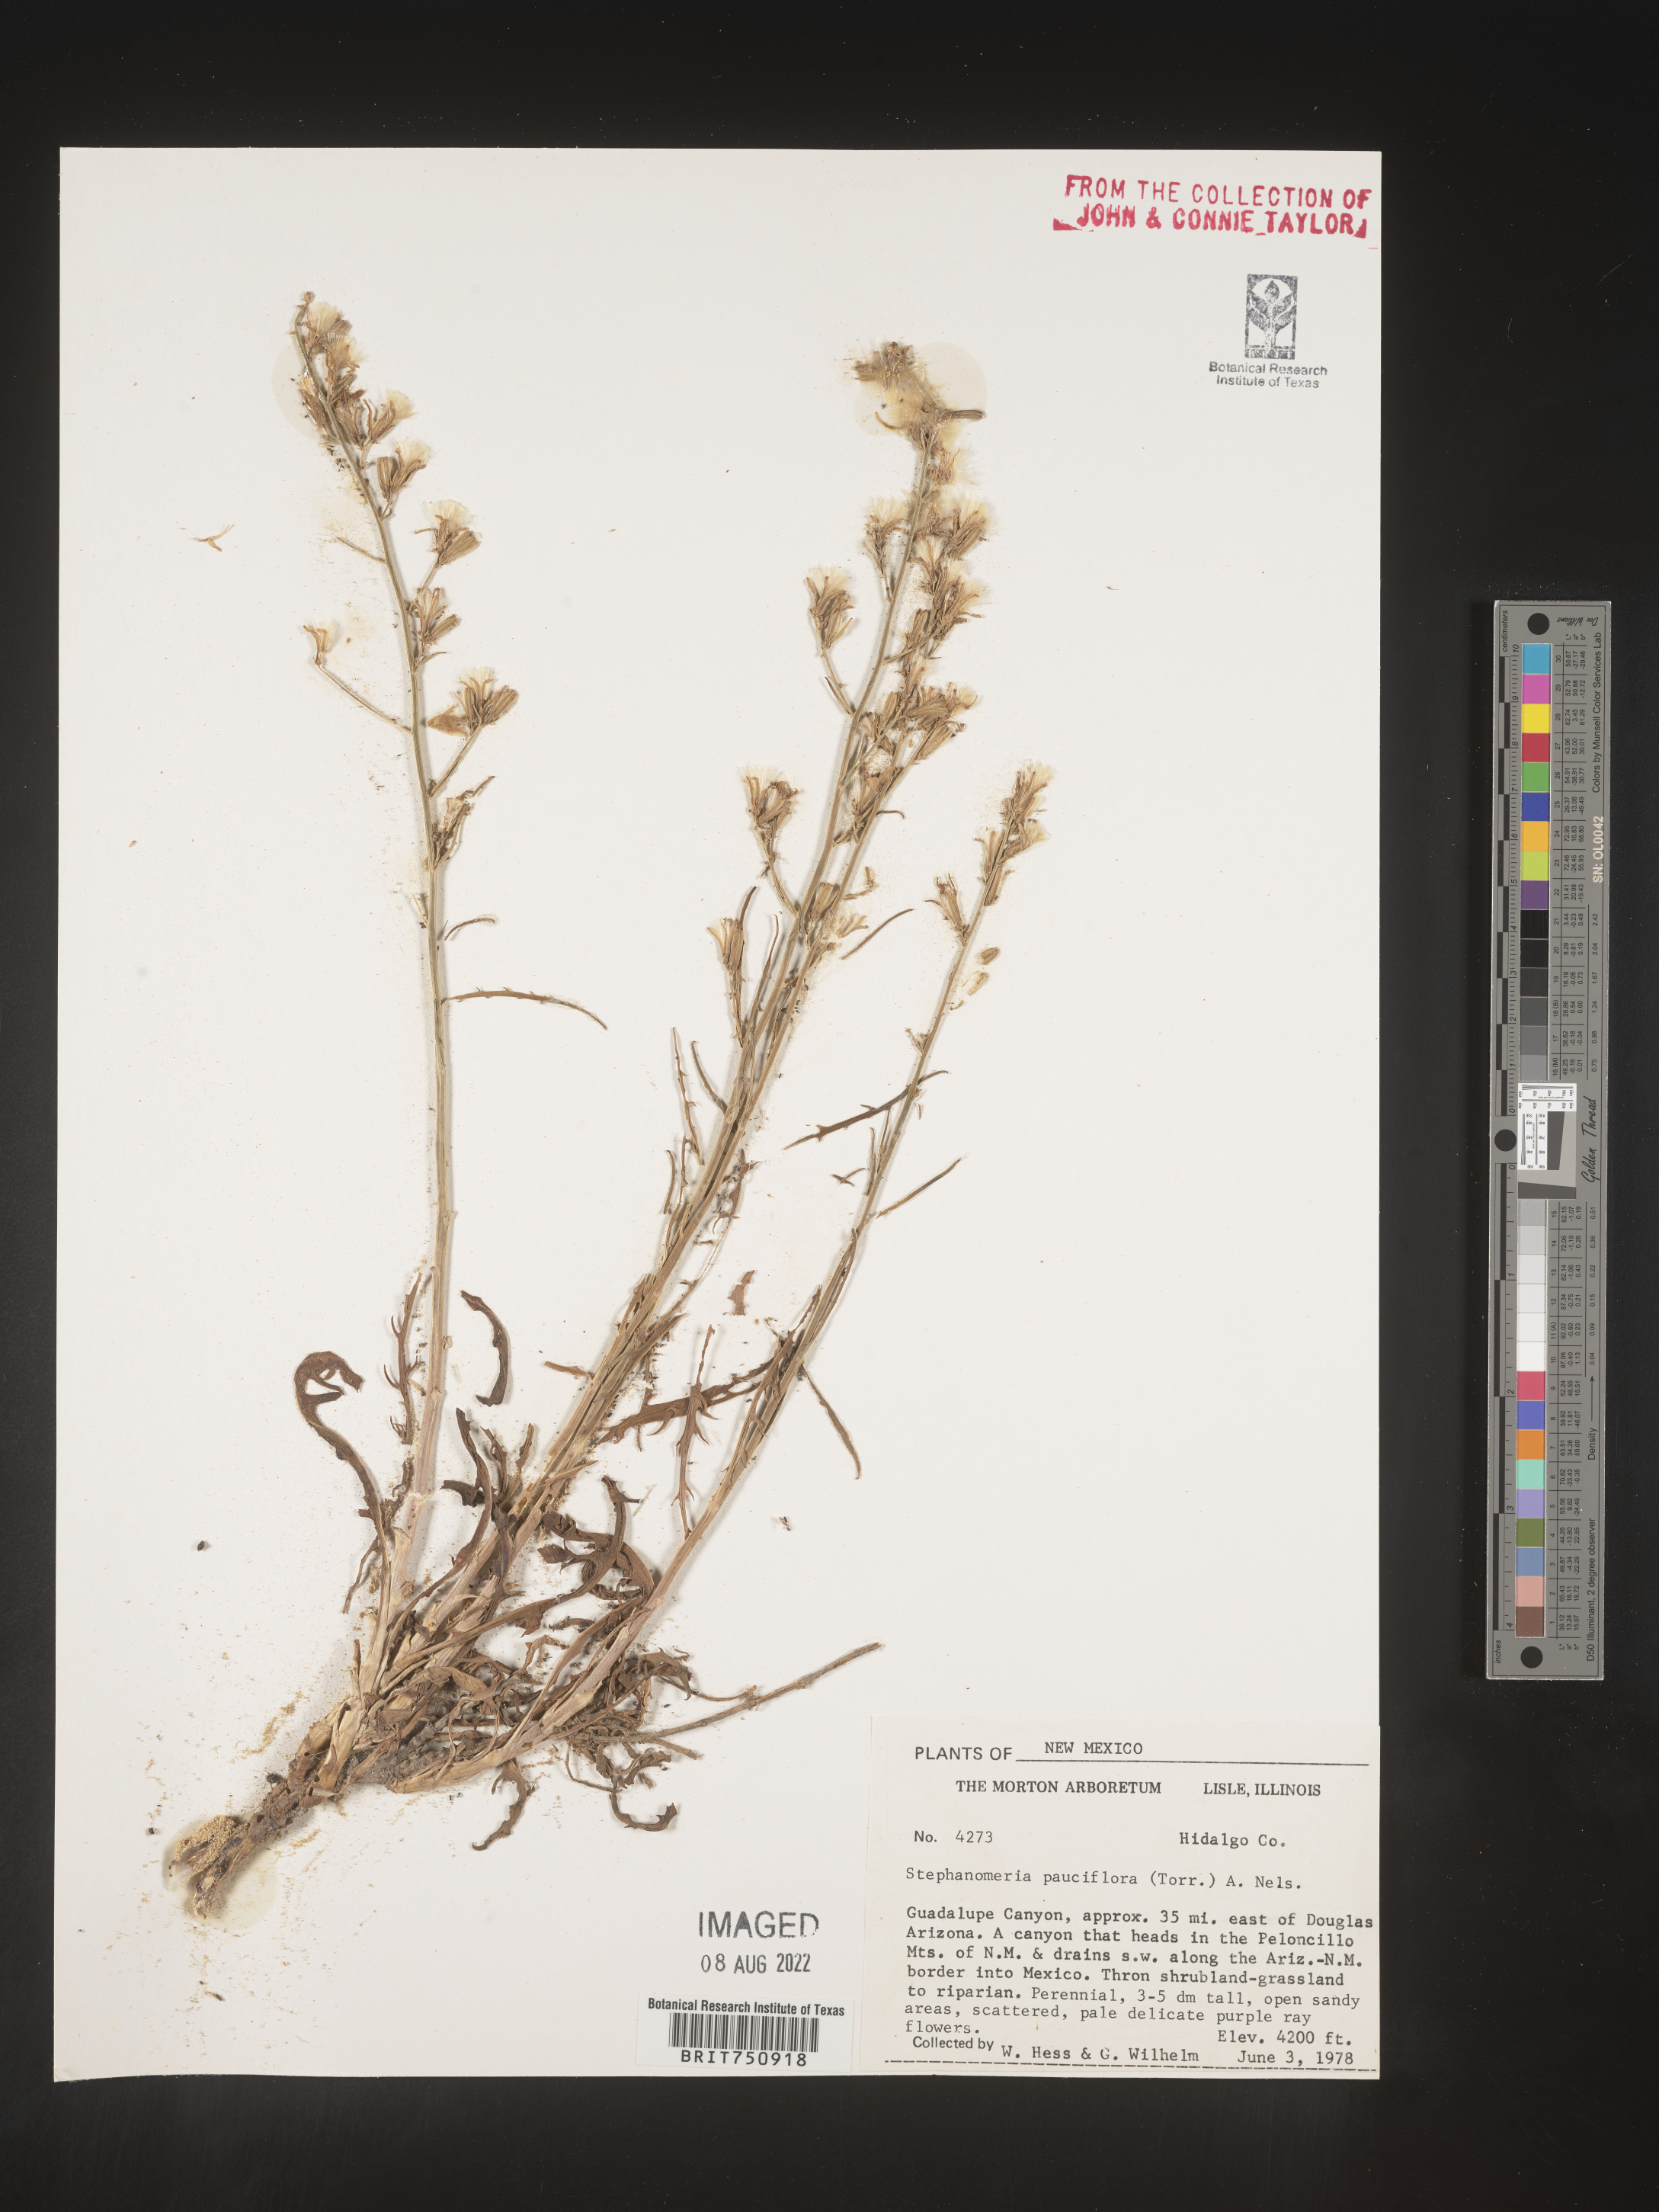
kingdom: Plantae
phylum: Tracheophyta
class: Magnoliopsida
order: Asterales
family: Asteraceae
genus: Stephanomeria
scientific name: Stephanomeria pauciflora
